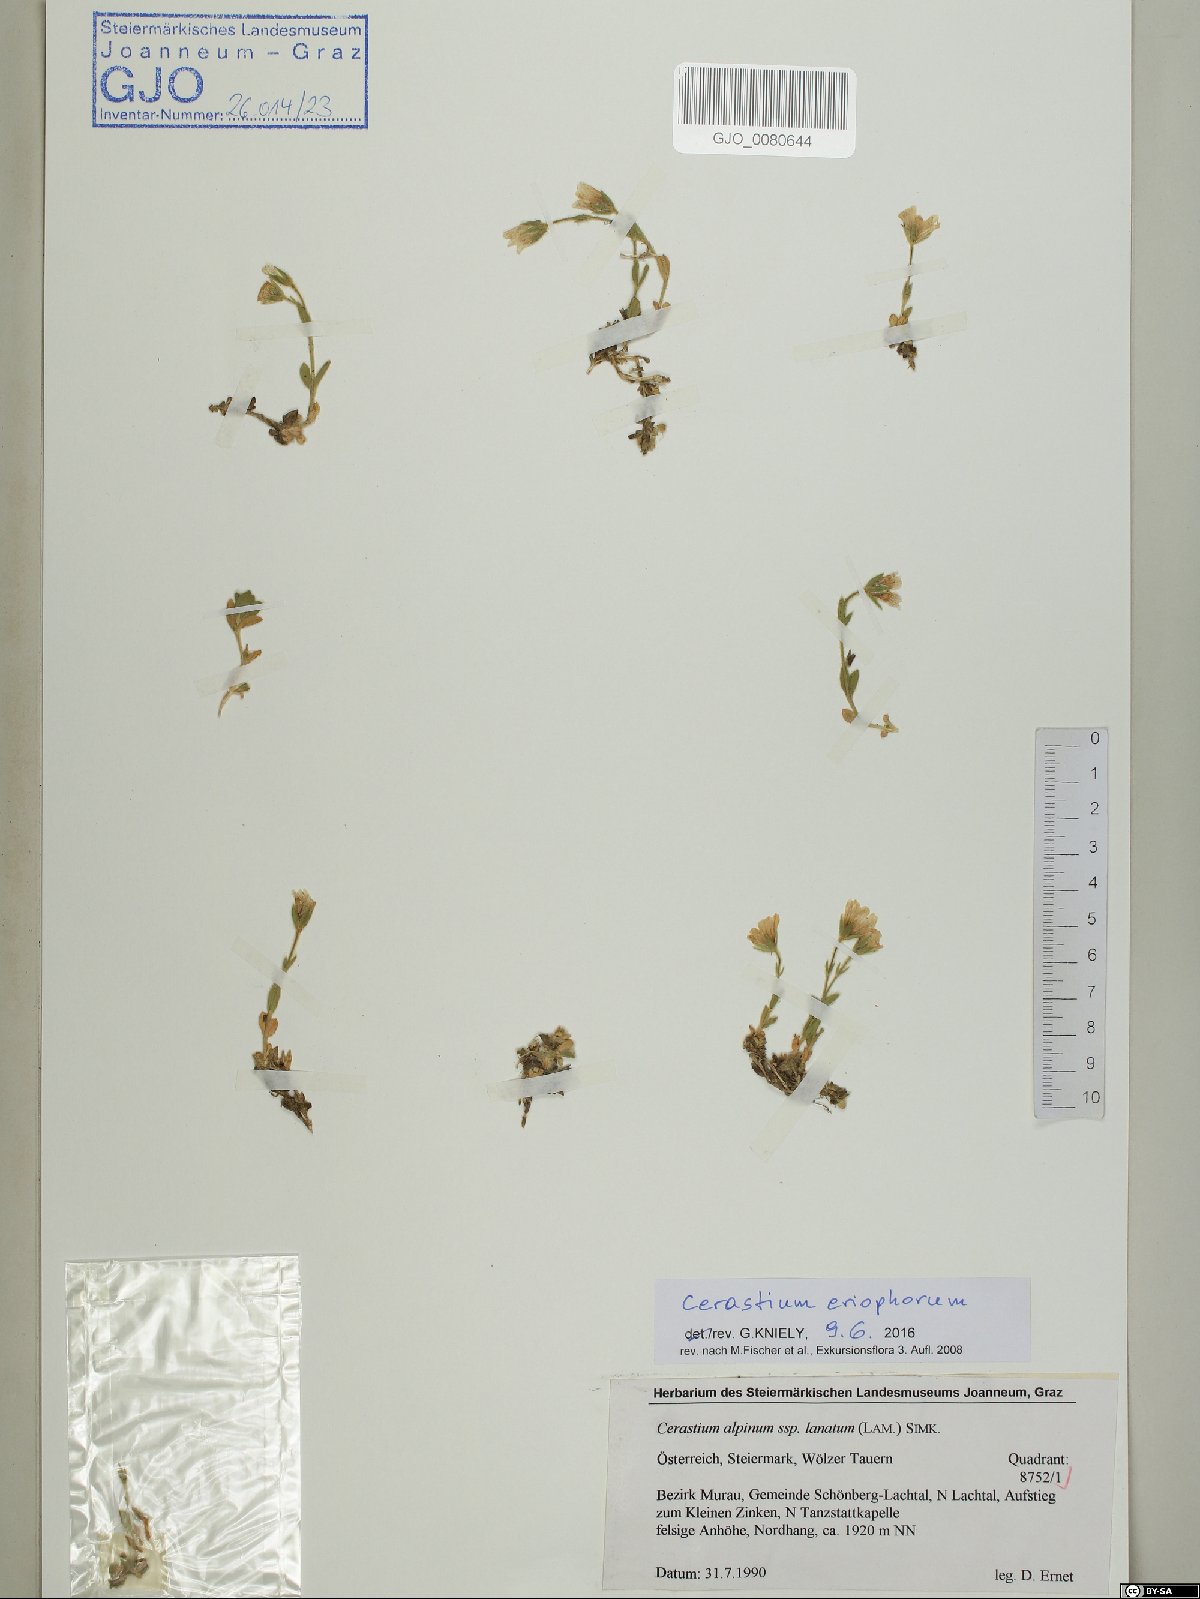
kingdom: Plantae
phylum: Tracheophyta
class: Magnoliopsida
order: Caryophyllales
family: Caryophyllaceae
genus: Cerastium
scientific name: Cerastium eriophorum
